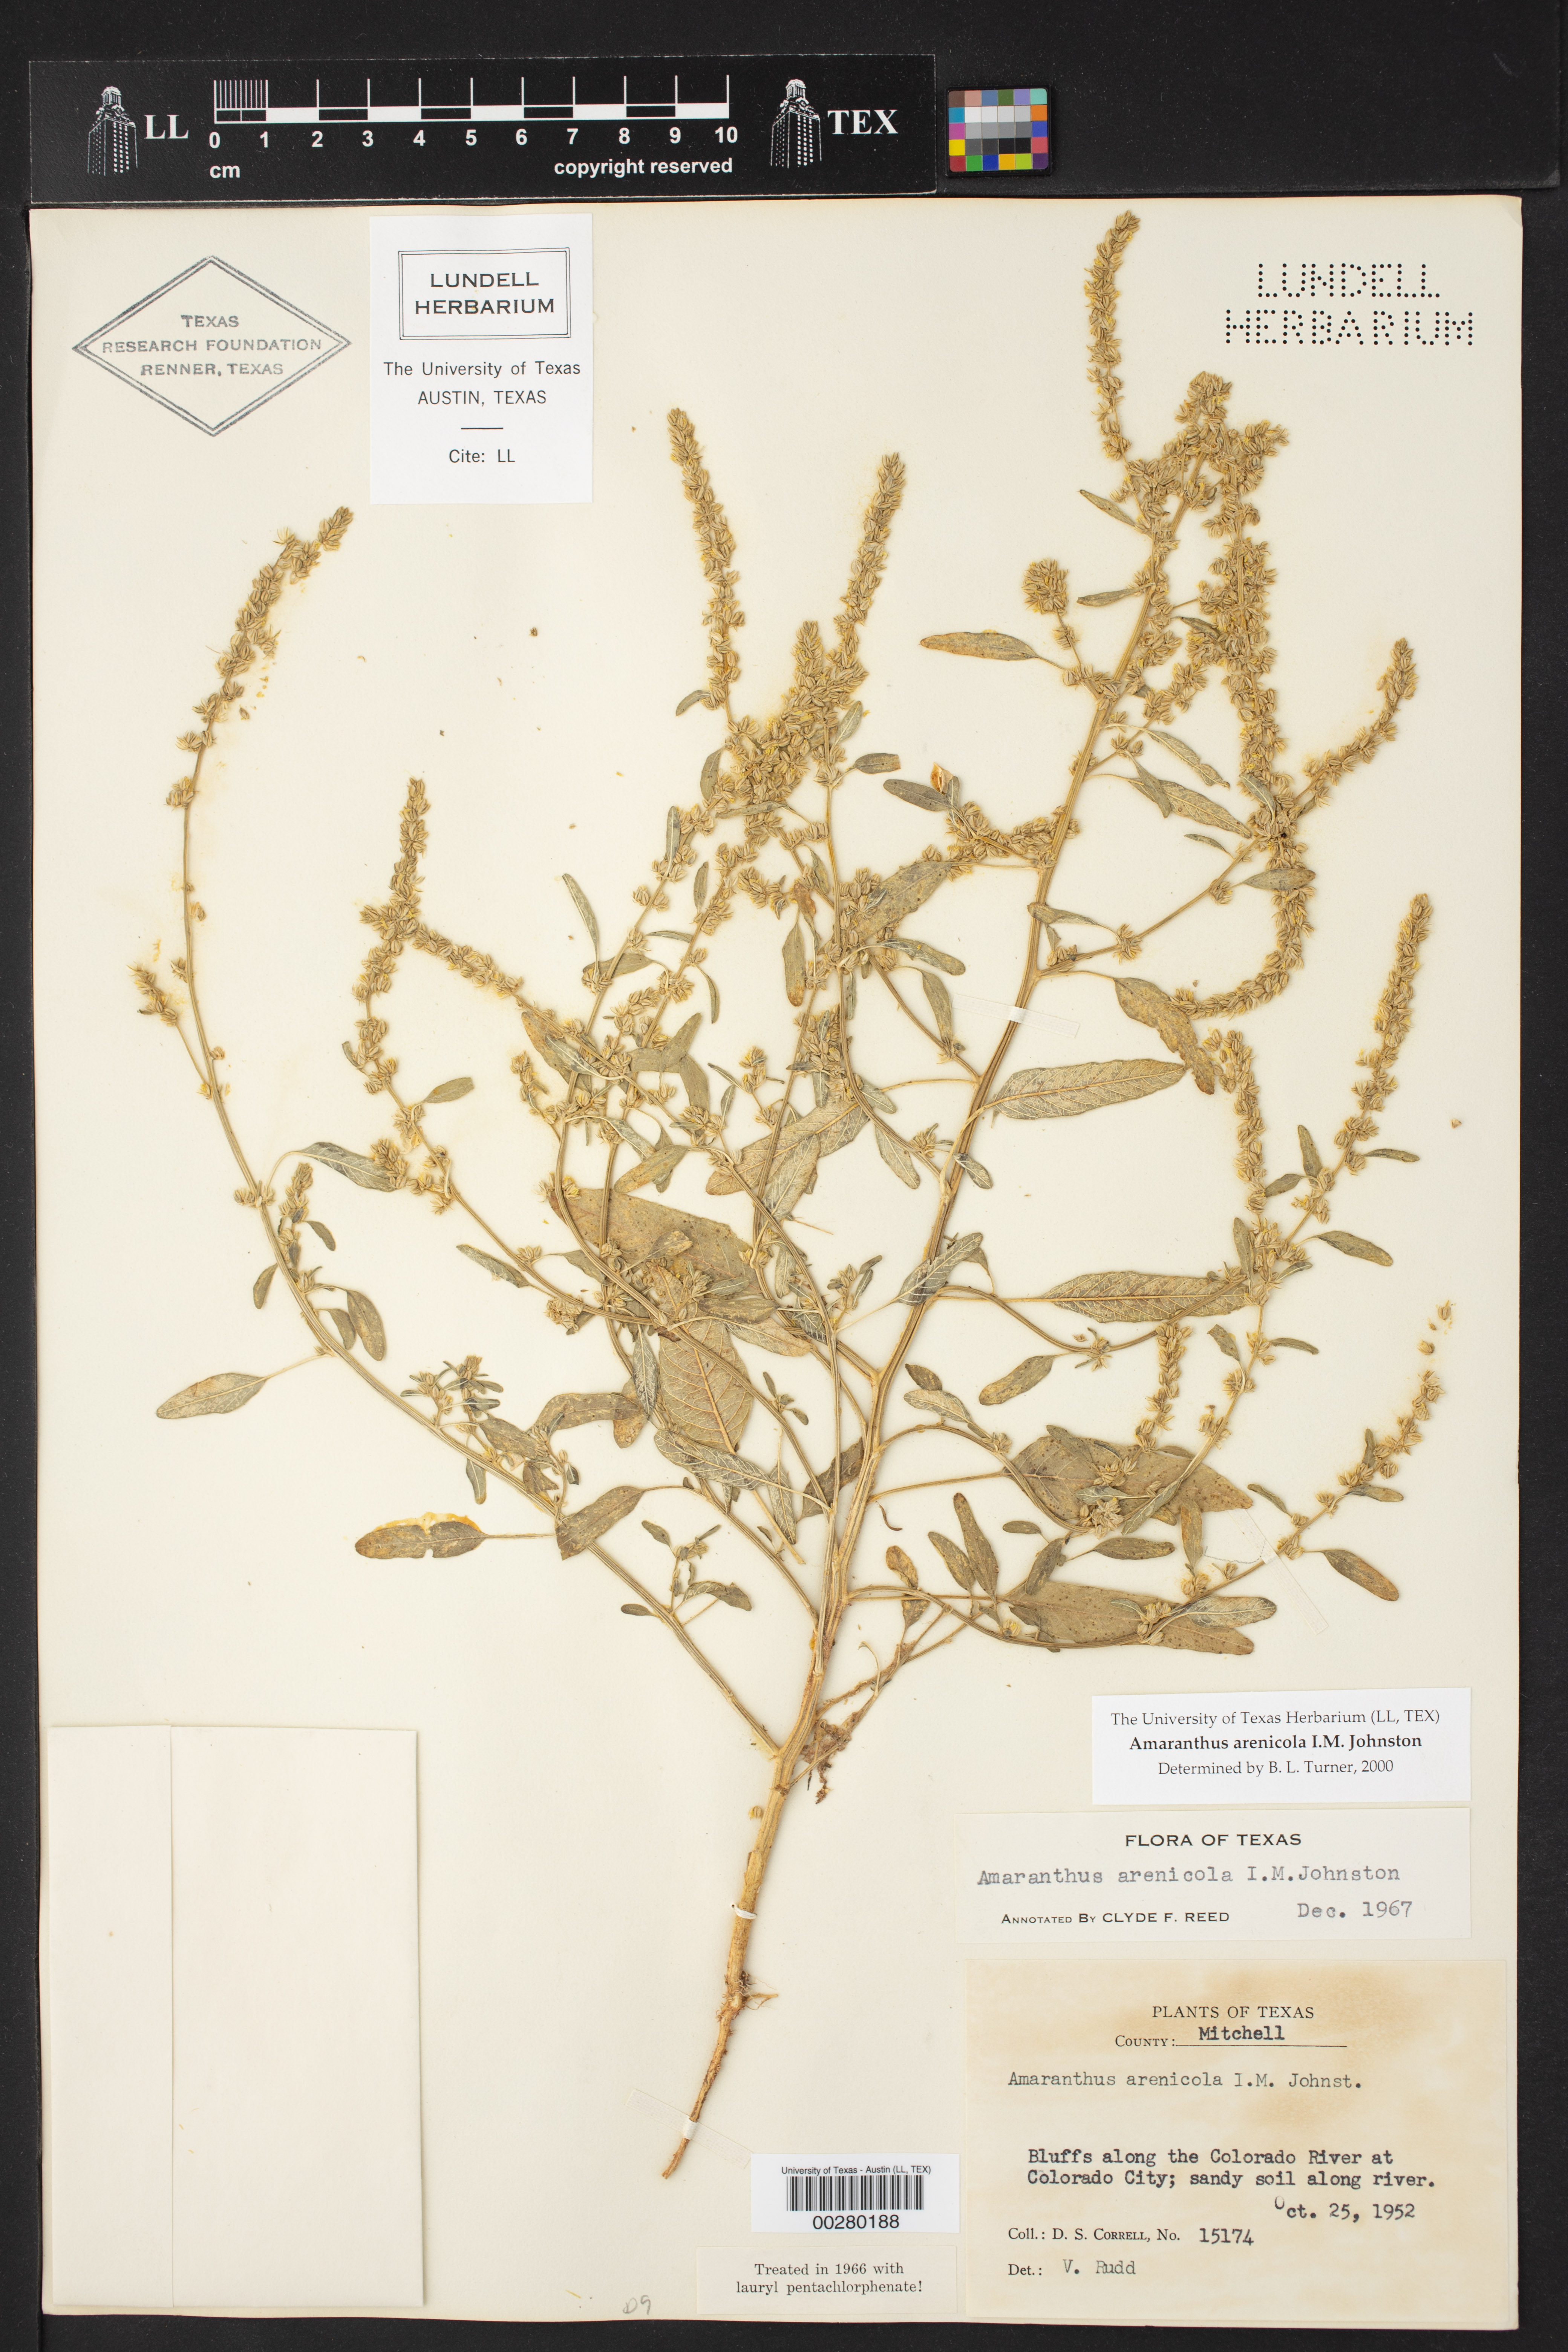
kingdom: Plantae
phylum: Tracheophyta
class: Magnoliopsida
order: Caryophyllales
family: Amaranthaceae
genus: Amaranthus
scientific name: Amaranthus arenicola
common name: Sandhills amaranth
